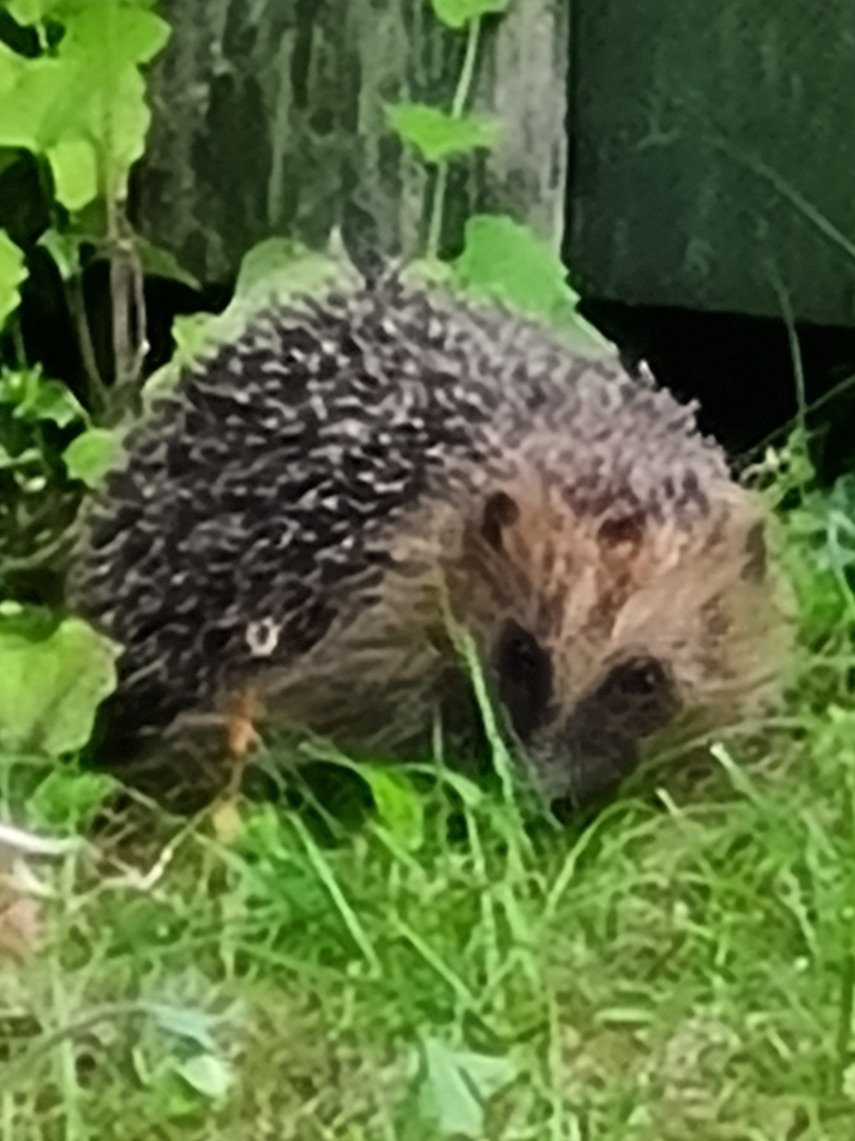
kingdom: Animalia
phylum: Chordata
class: Mammalia
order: Erinaceomorpha
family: Erinaceidae
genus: Erinaceus
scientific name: Erinaceus europaeus
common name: Pindsvin
